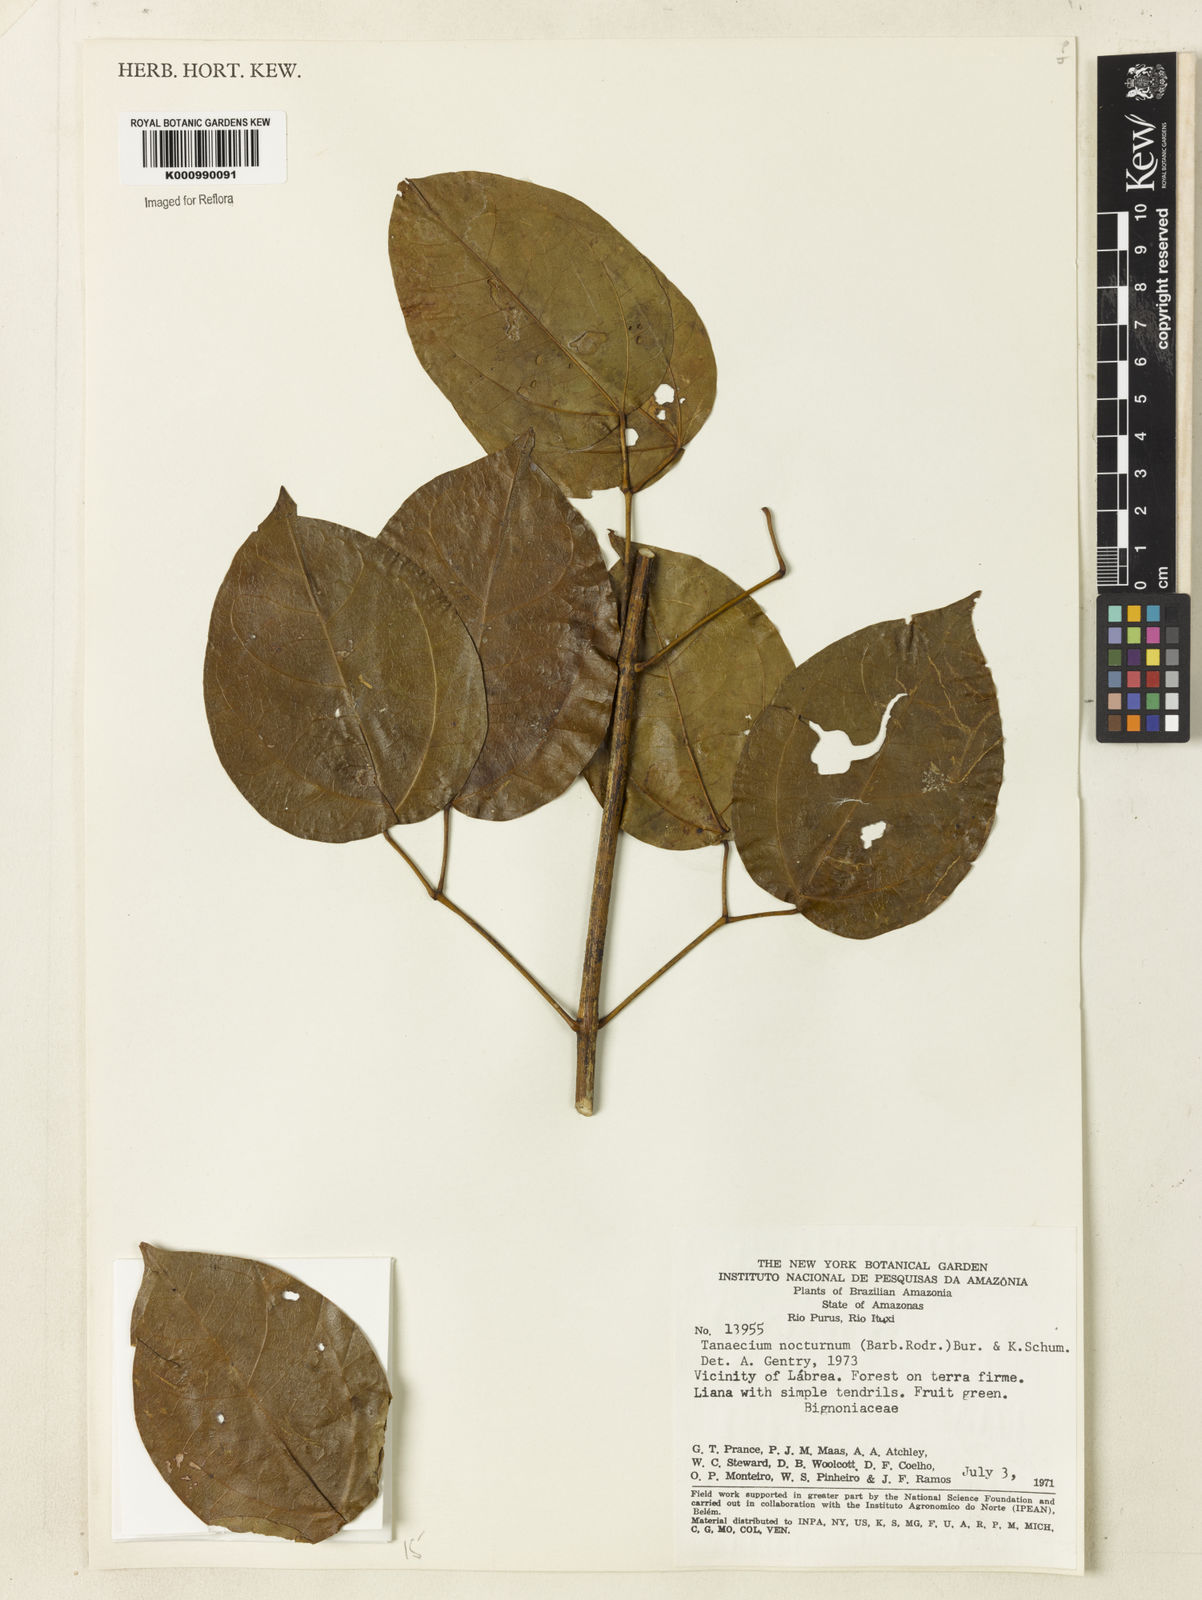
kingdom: Plantae
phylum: Tracheophyta
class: Magnoliopsida
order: Lamiales
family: Bignoniaceae
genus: Bignonia
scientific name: Bignonia nocturna
